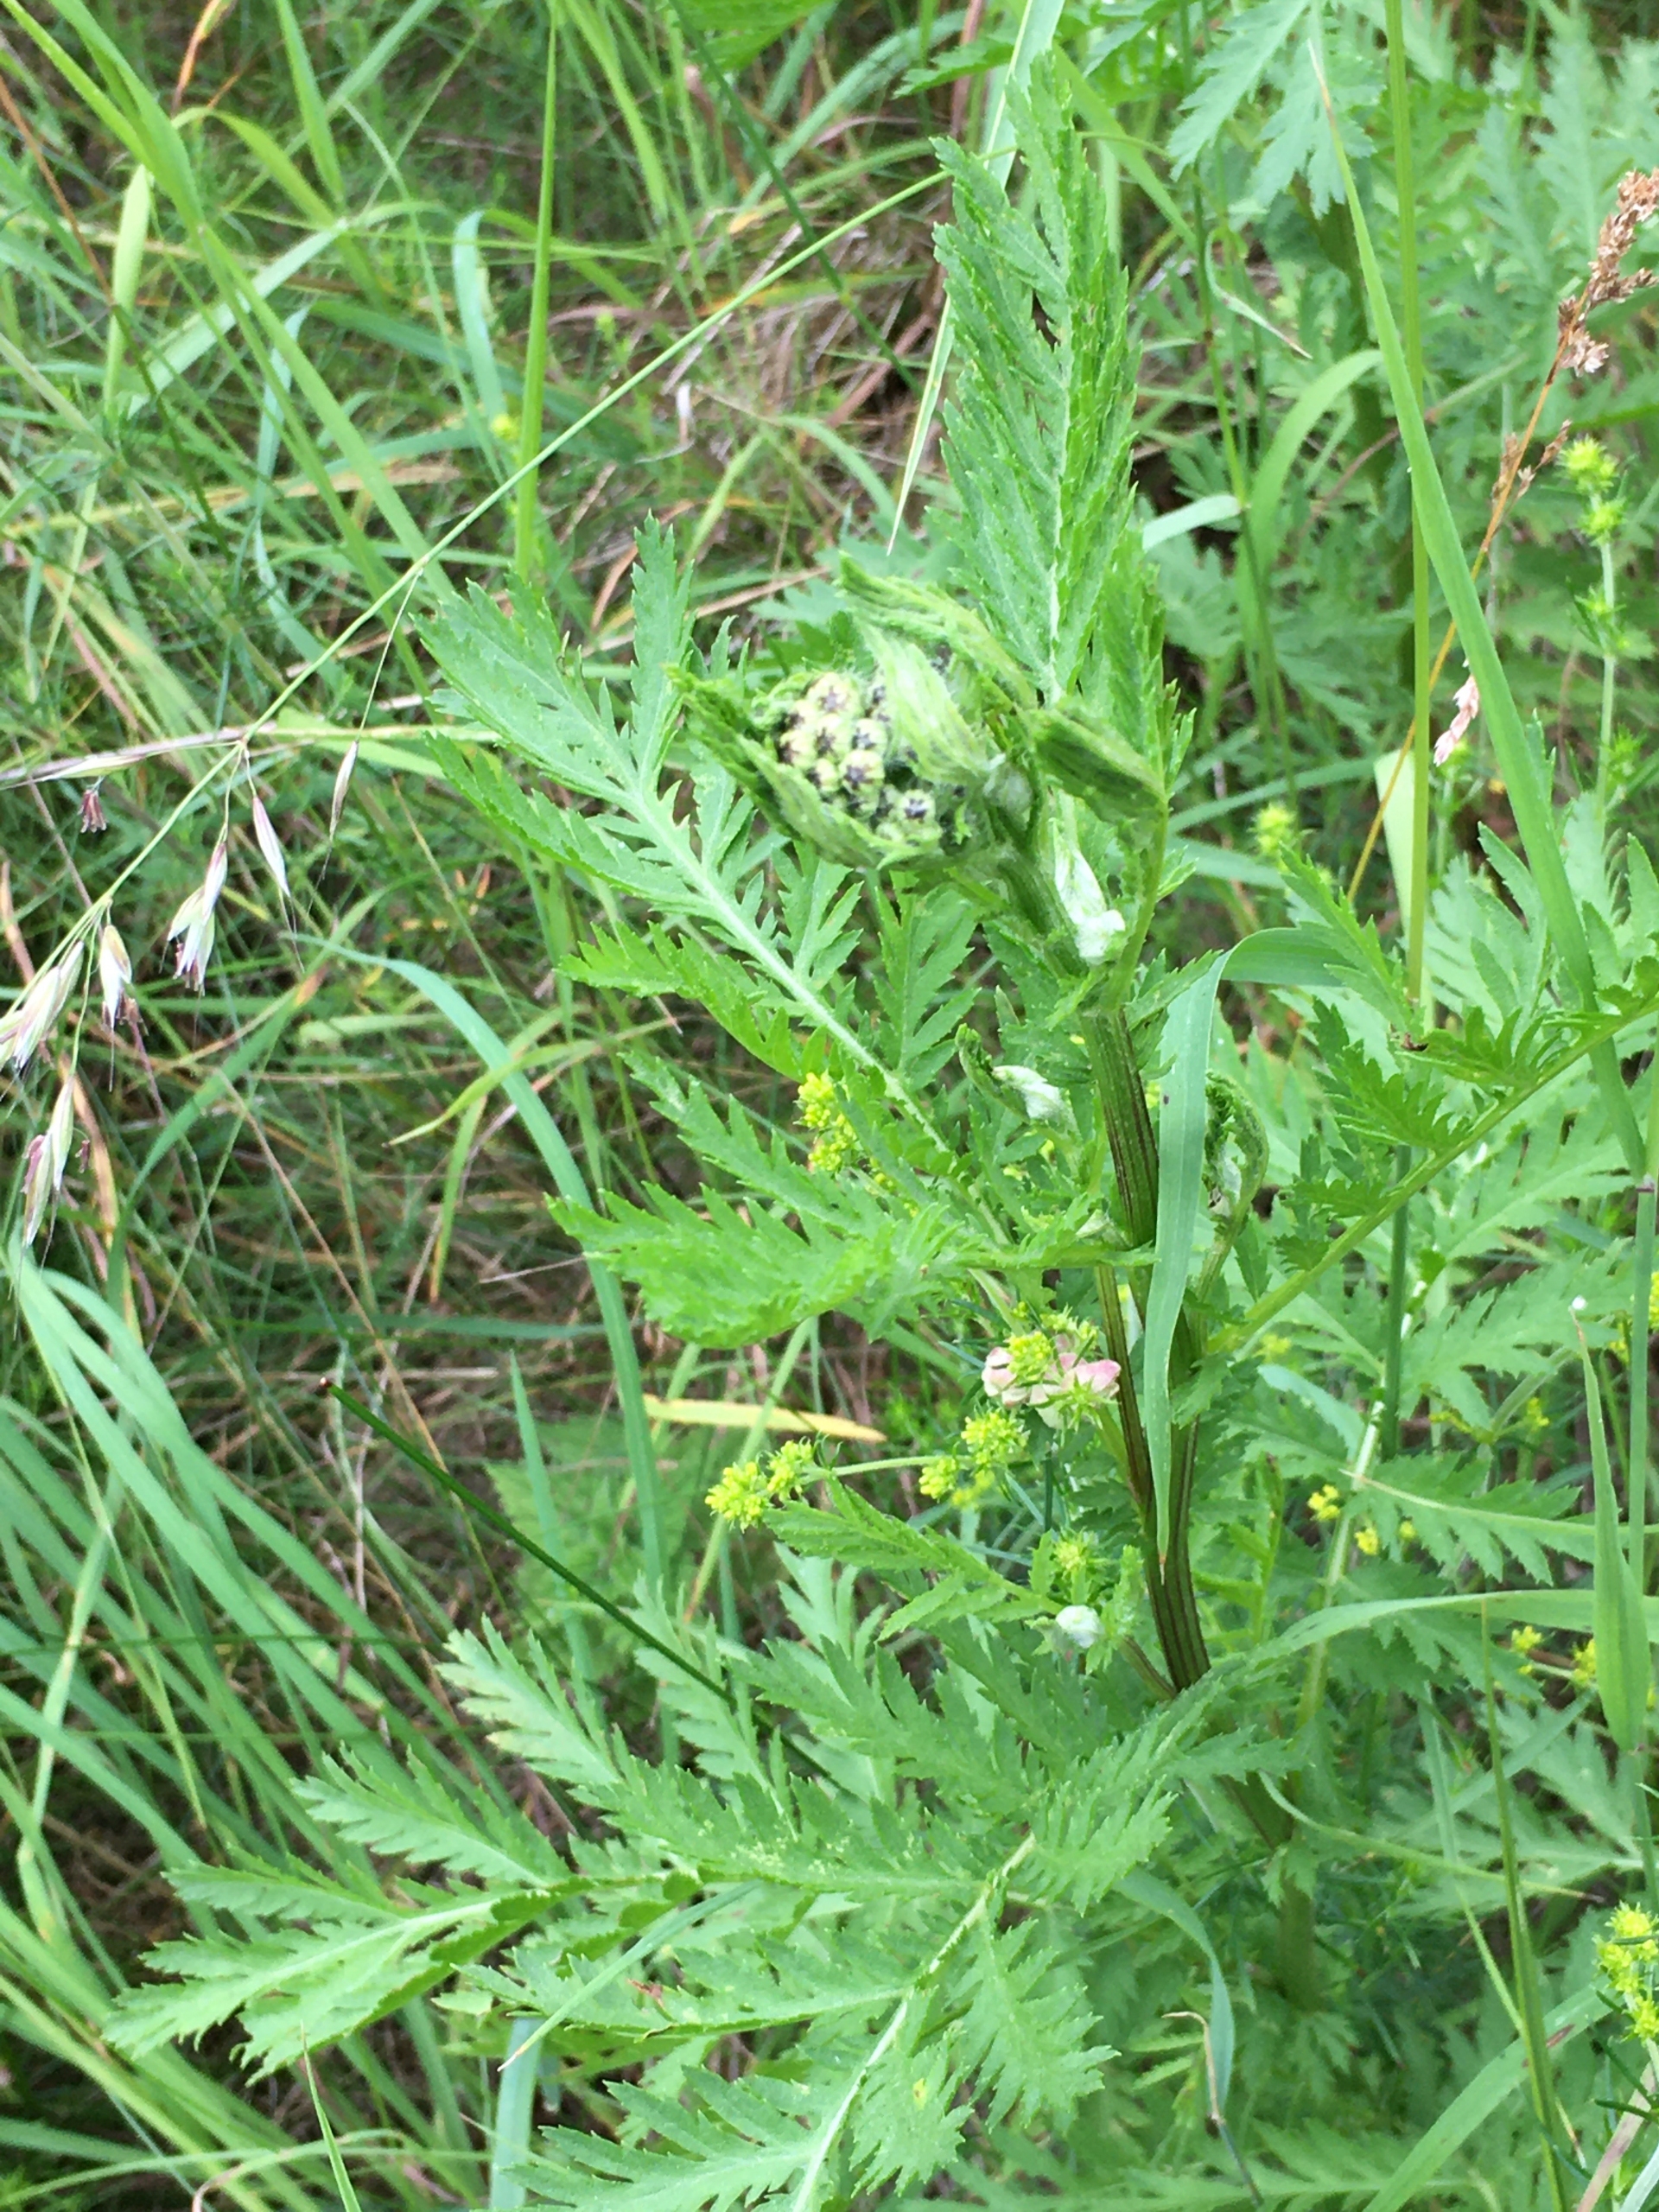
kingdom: Plantae
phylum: Tracheophyta
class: Magnoliopsida
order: Asterales
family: Asteraceae
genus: Tanacetum
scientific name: Tanacetum vulgare
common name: Rejnfan
